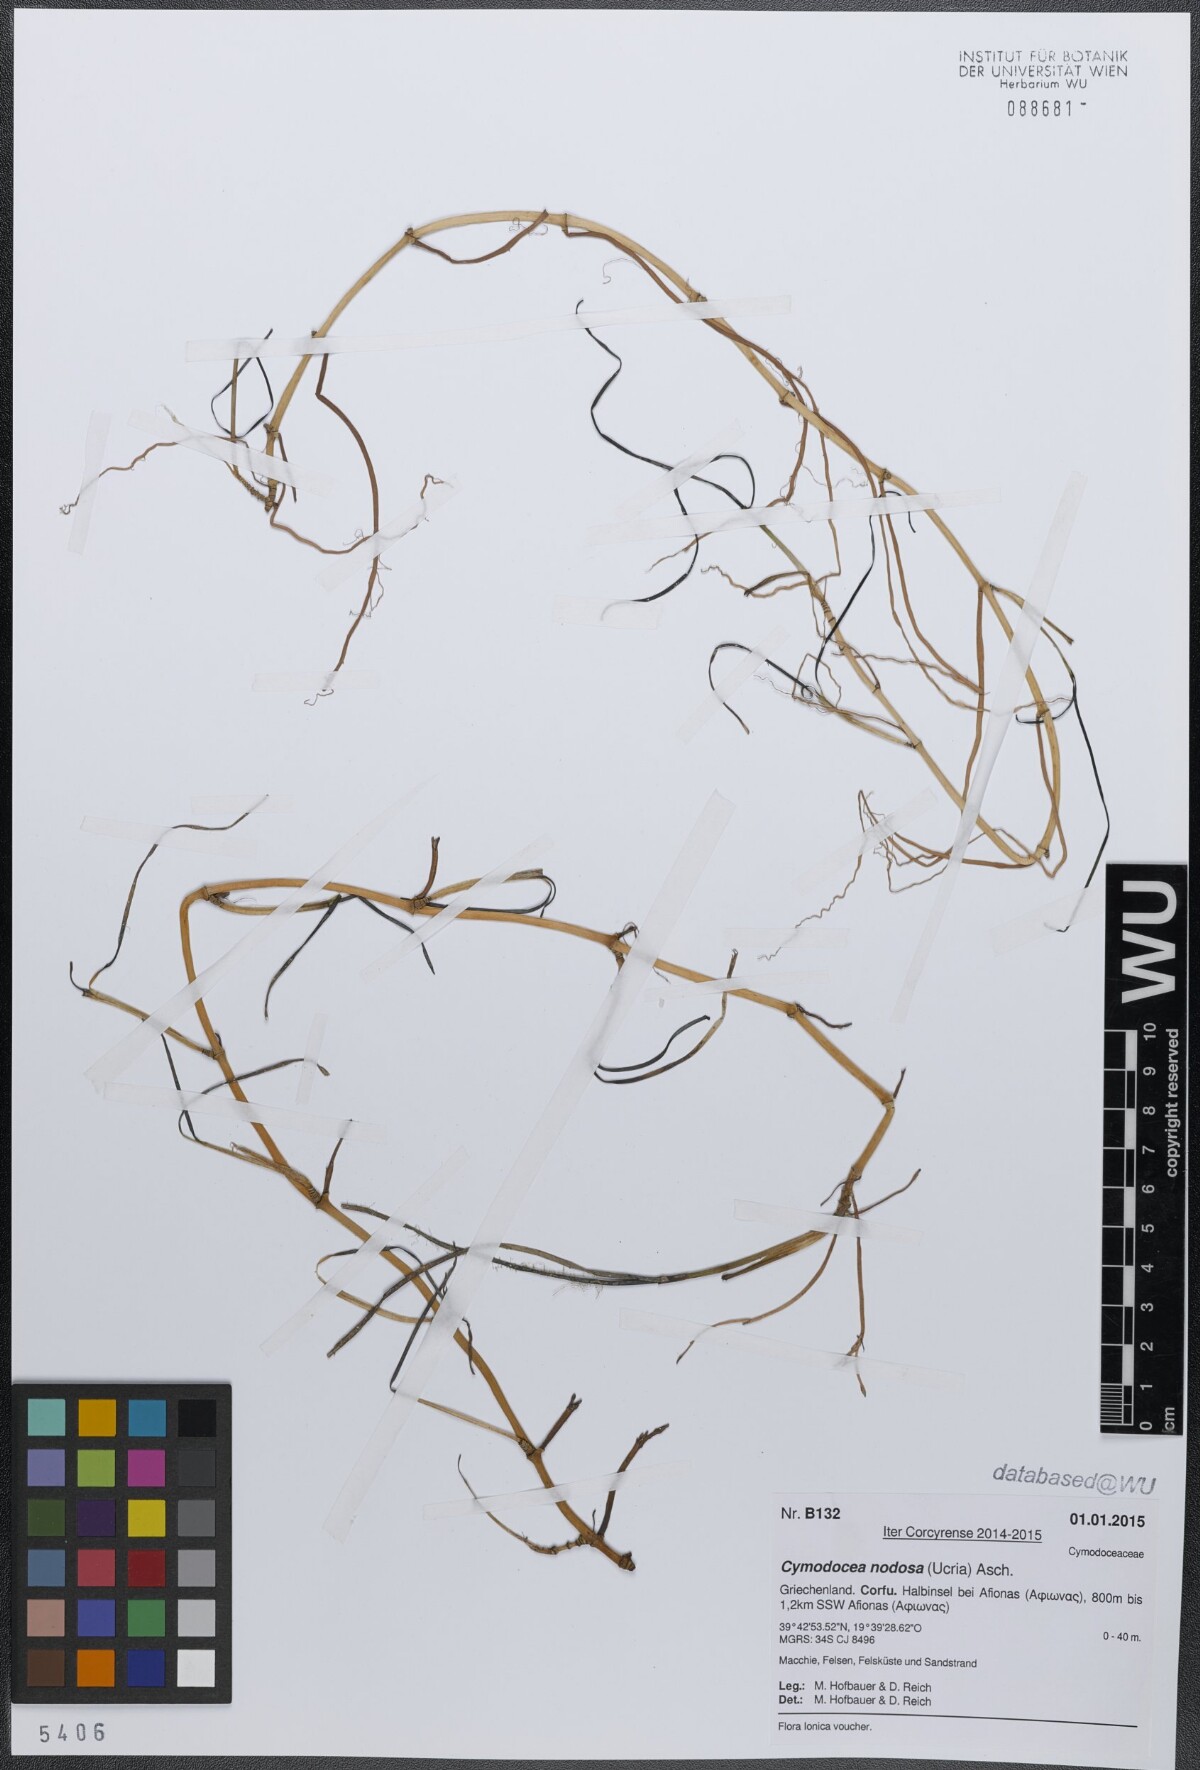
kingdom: Plantae
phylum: Tracheophyta
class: Liliopsida
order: Alismatales
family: Cymodoceaceae
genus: Cymodocea
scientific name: Cymodocea nodosa
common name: Slender seagrass
